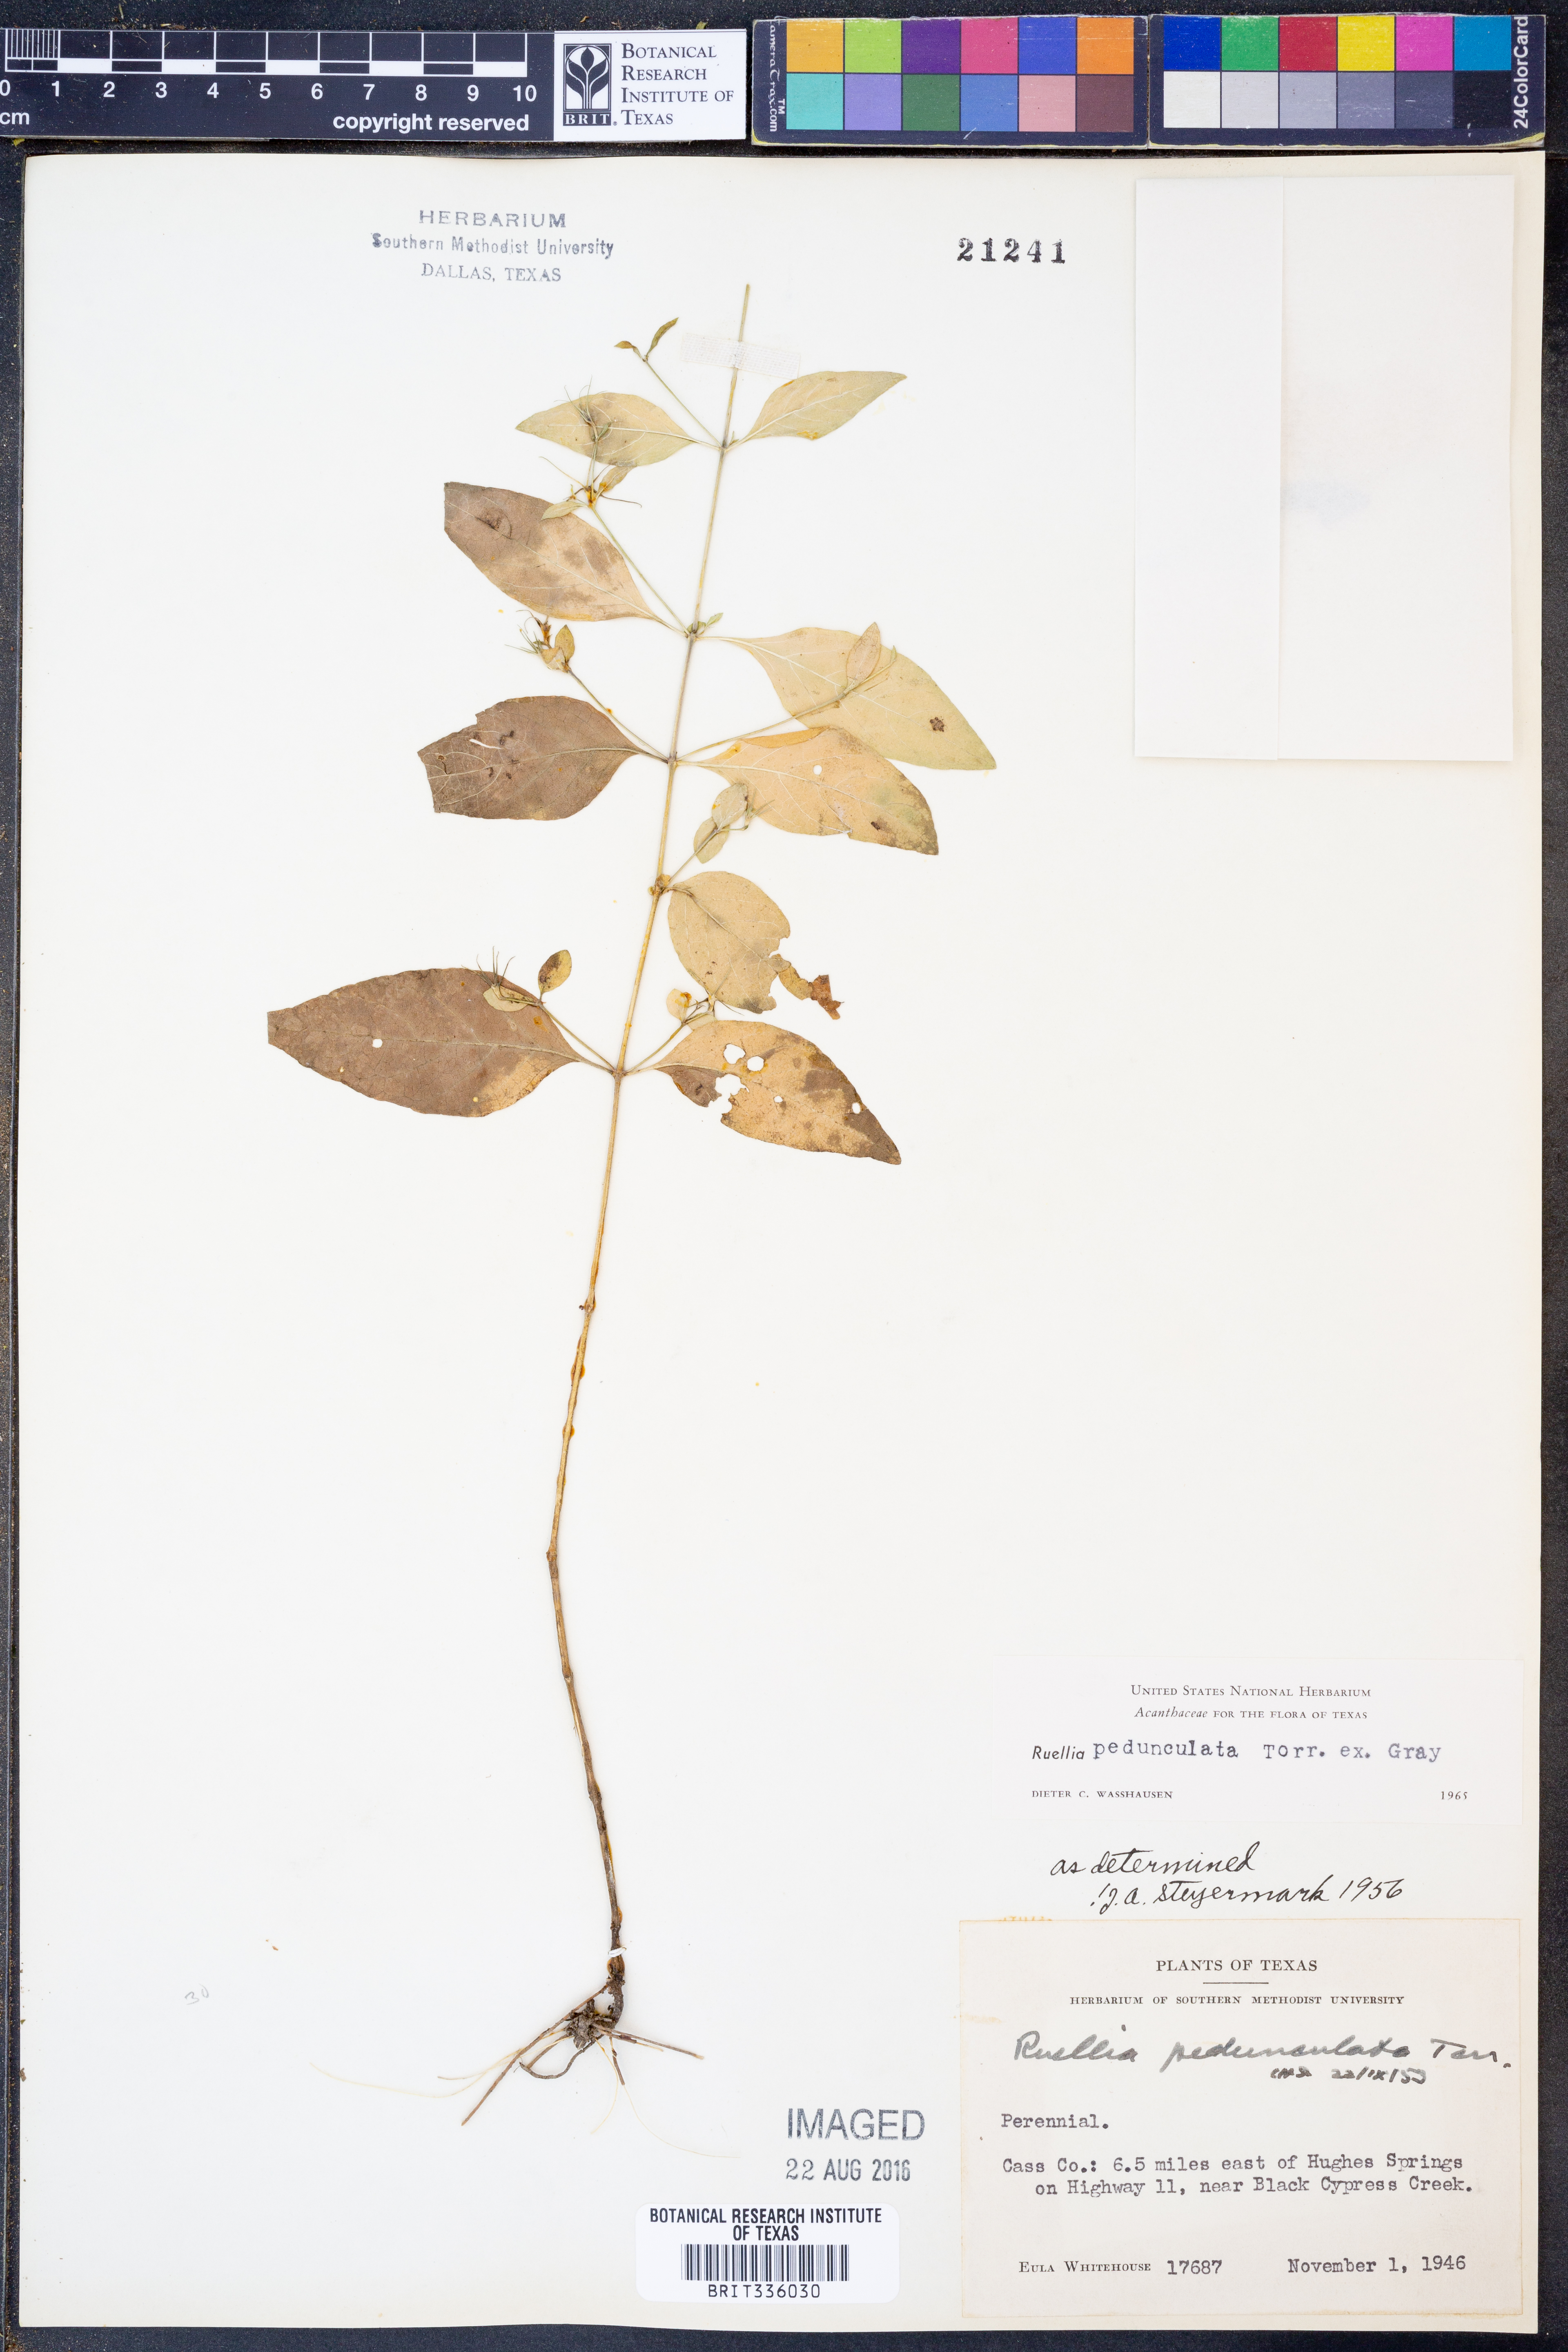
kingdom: Plantae
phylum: Tracheophyta
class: Magnoliopsida
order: Lamiales
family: Acanthaceae
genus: Ruellia
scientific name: Ruellia pedunculata
